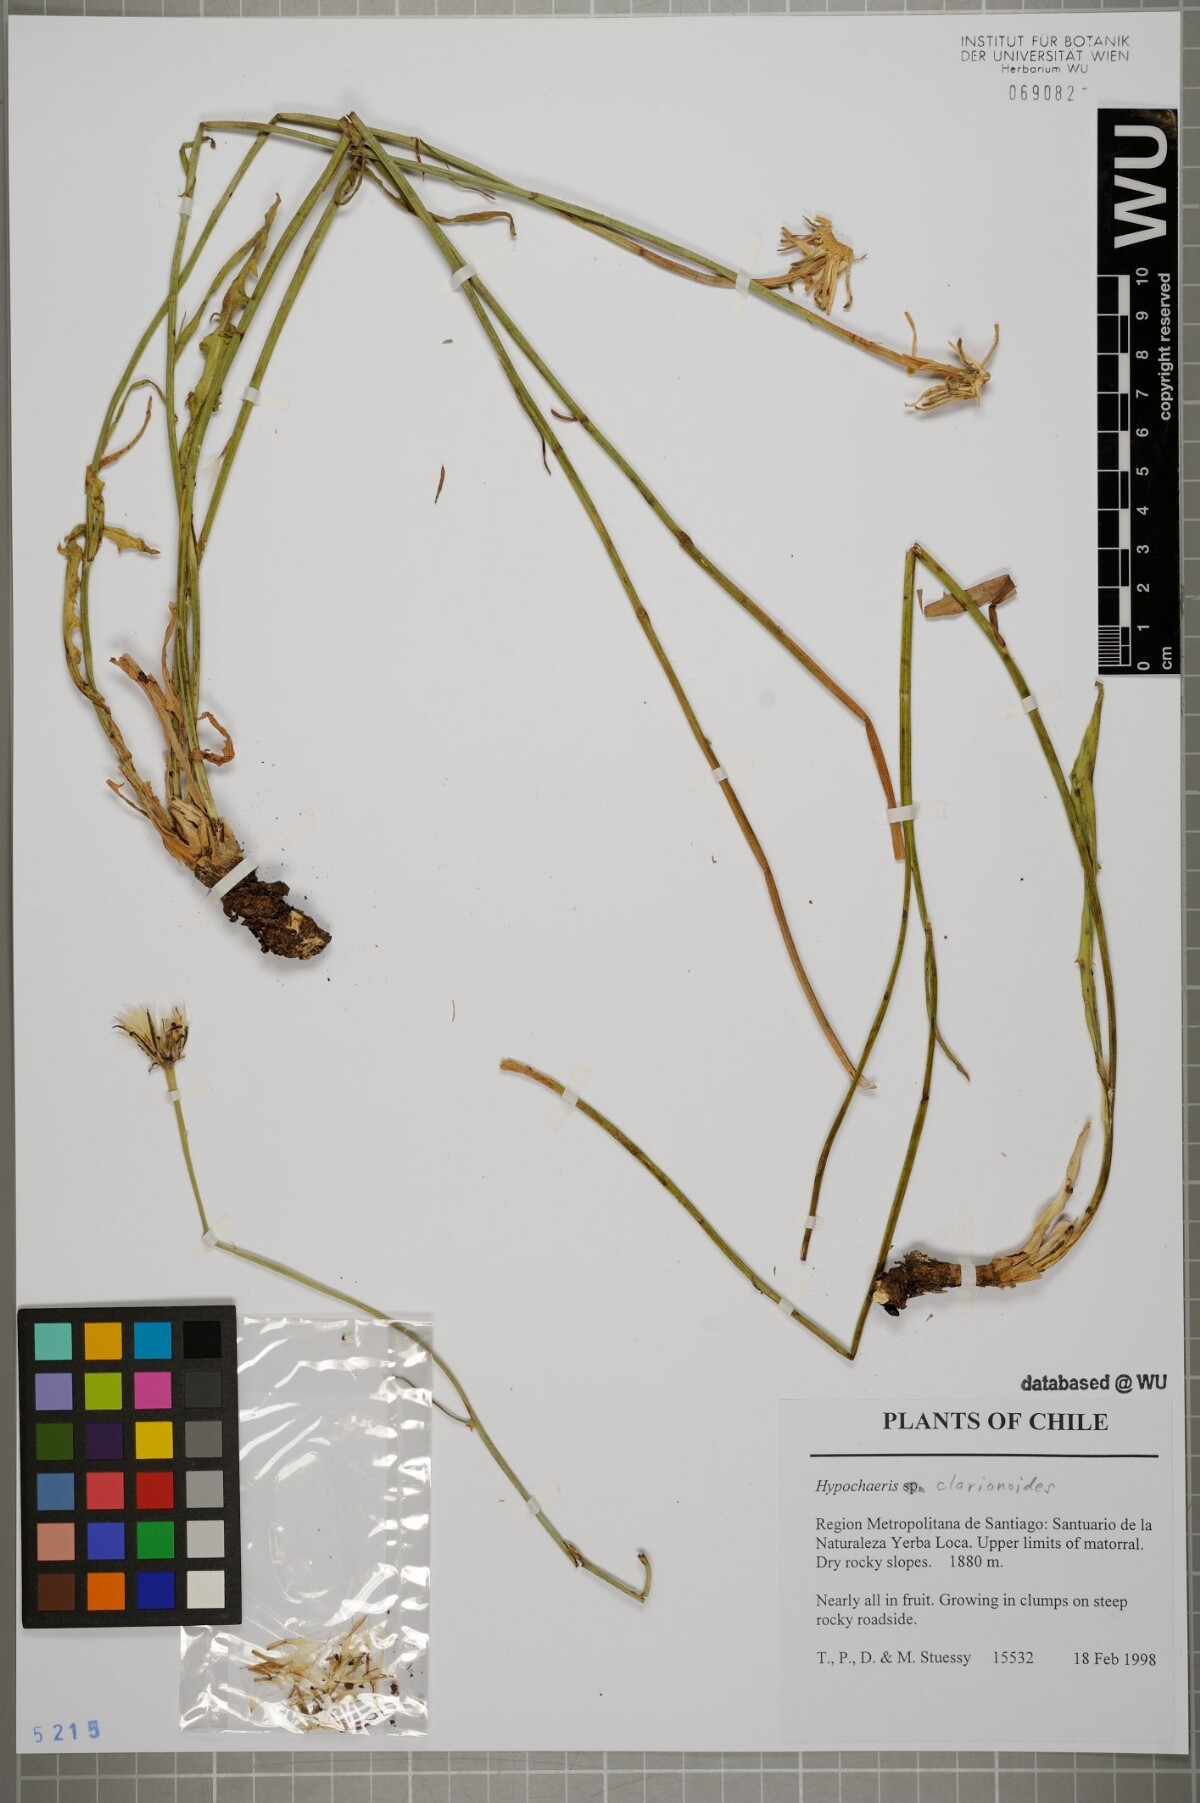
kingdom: Plantae
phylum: Tracheophyta
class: Magnoliopsida
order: Asterales
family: Asteraceae
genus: Hypochaeris
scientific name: Hypochaeris clarionoides
